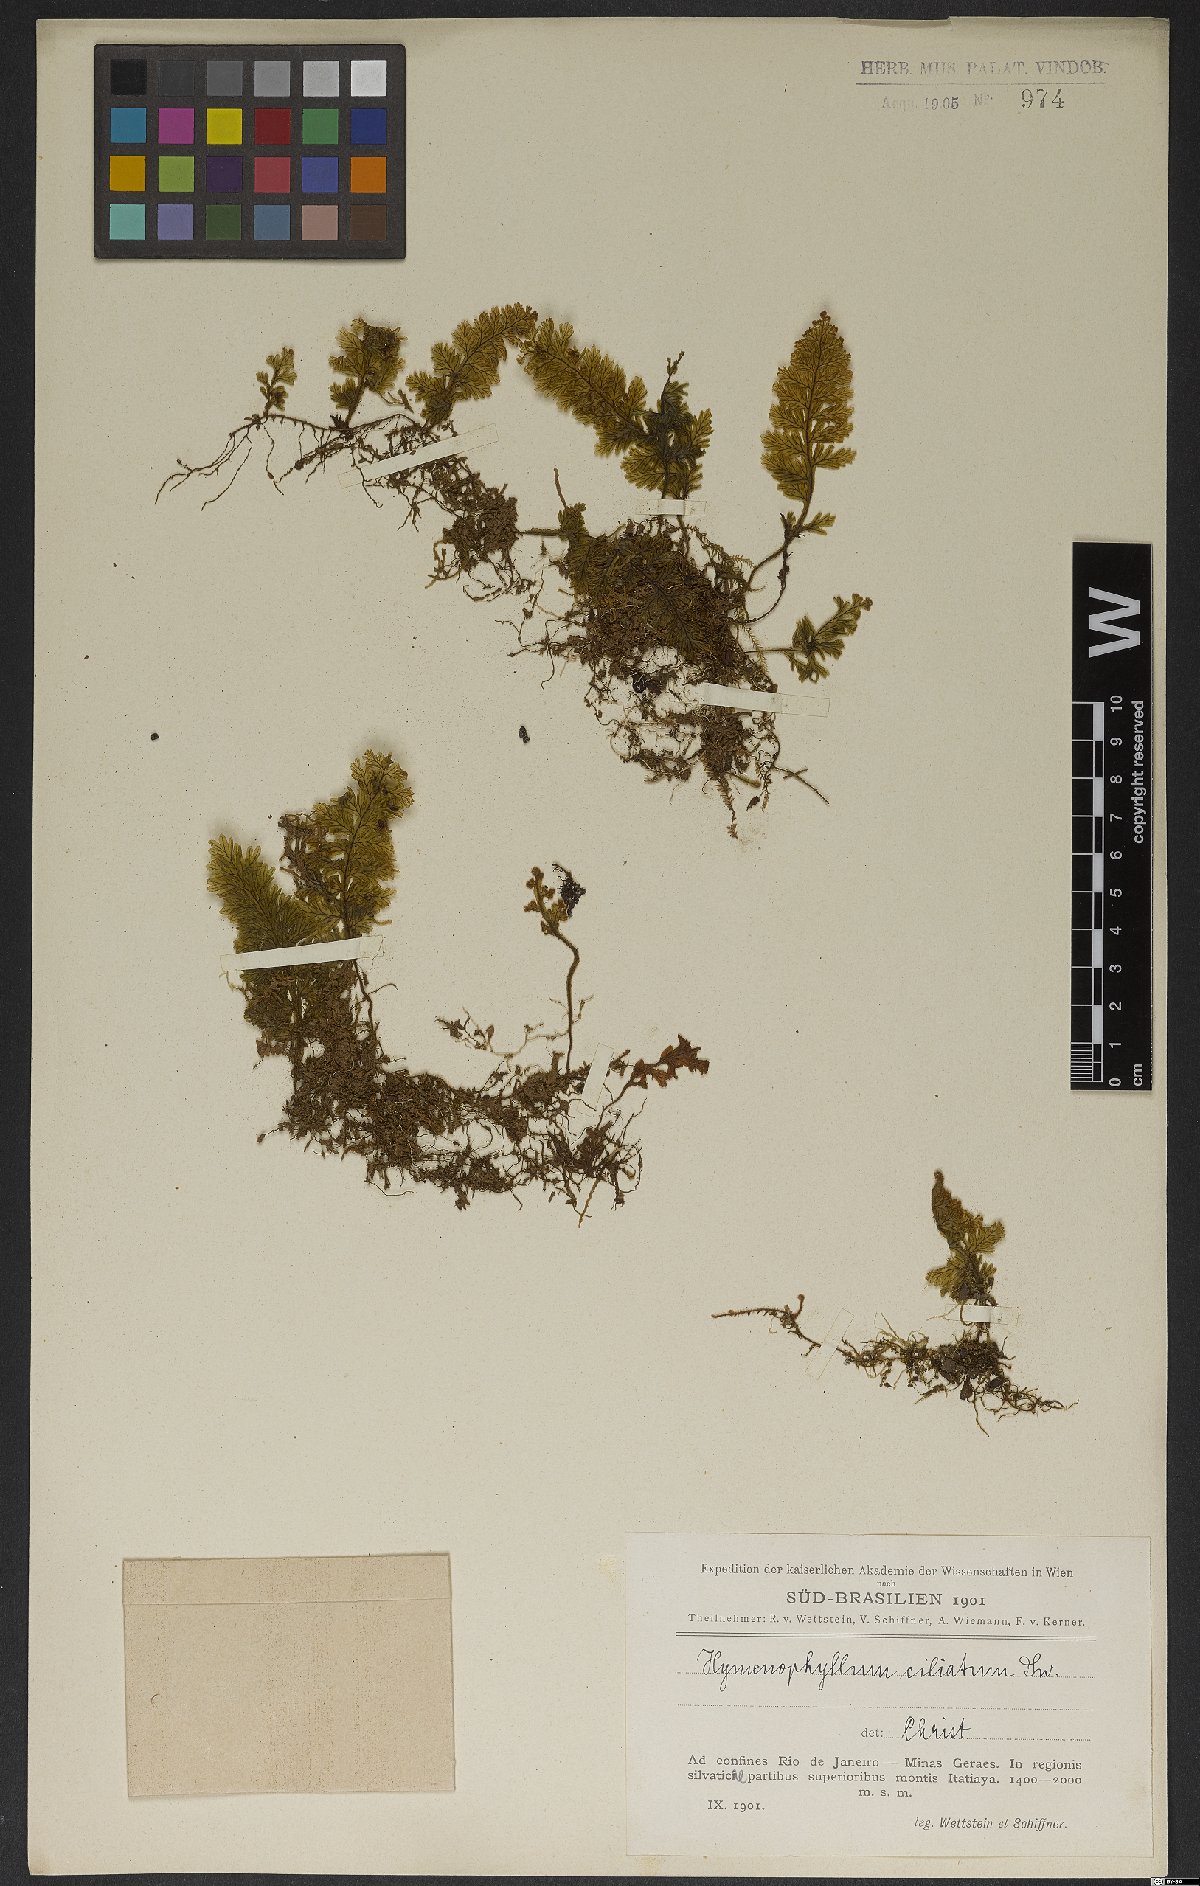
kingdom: Plantae
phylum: Tracheophyta
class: Polypodiopsida
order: Hymenophyllales
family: Hymenophyllaceae
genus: Hymenophyllum
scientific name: Hymenophyllum hirsutum
